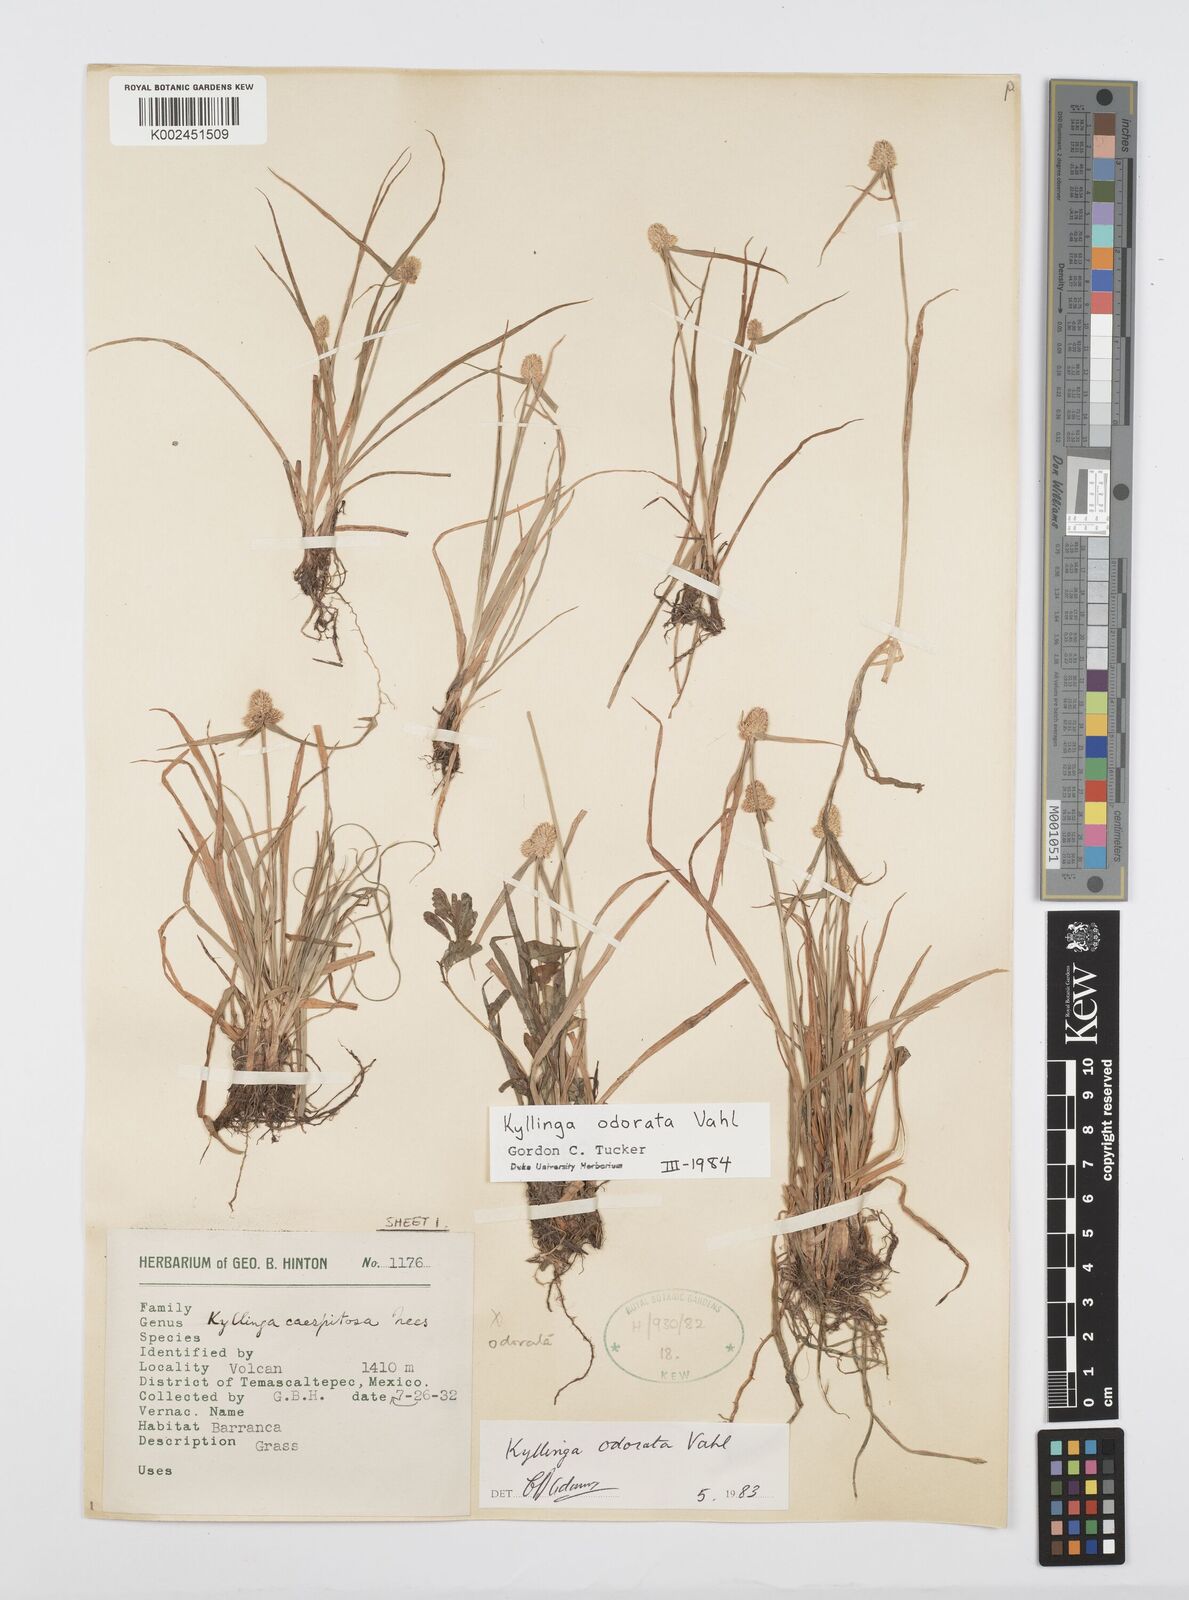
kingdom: Plantae
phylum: Tracheophyta
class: Liliopsida
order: Poales
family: Cyperaceae
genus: Cyperus
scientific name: Cyperus
